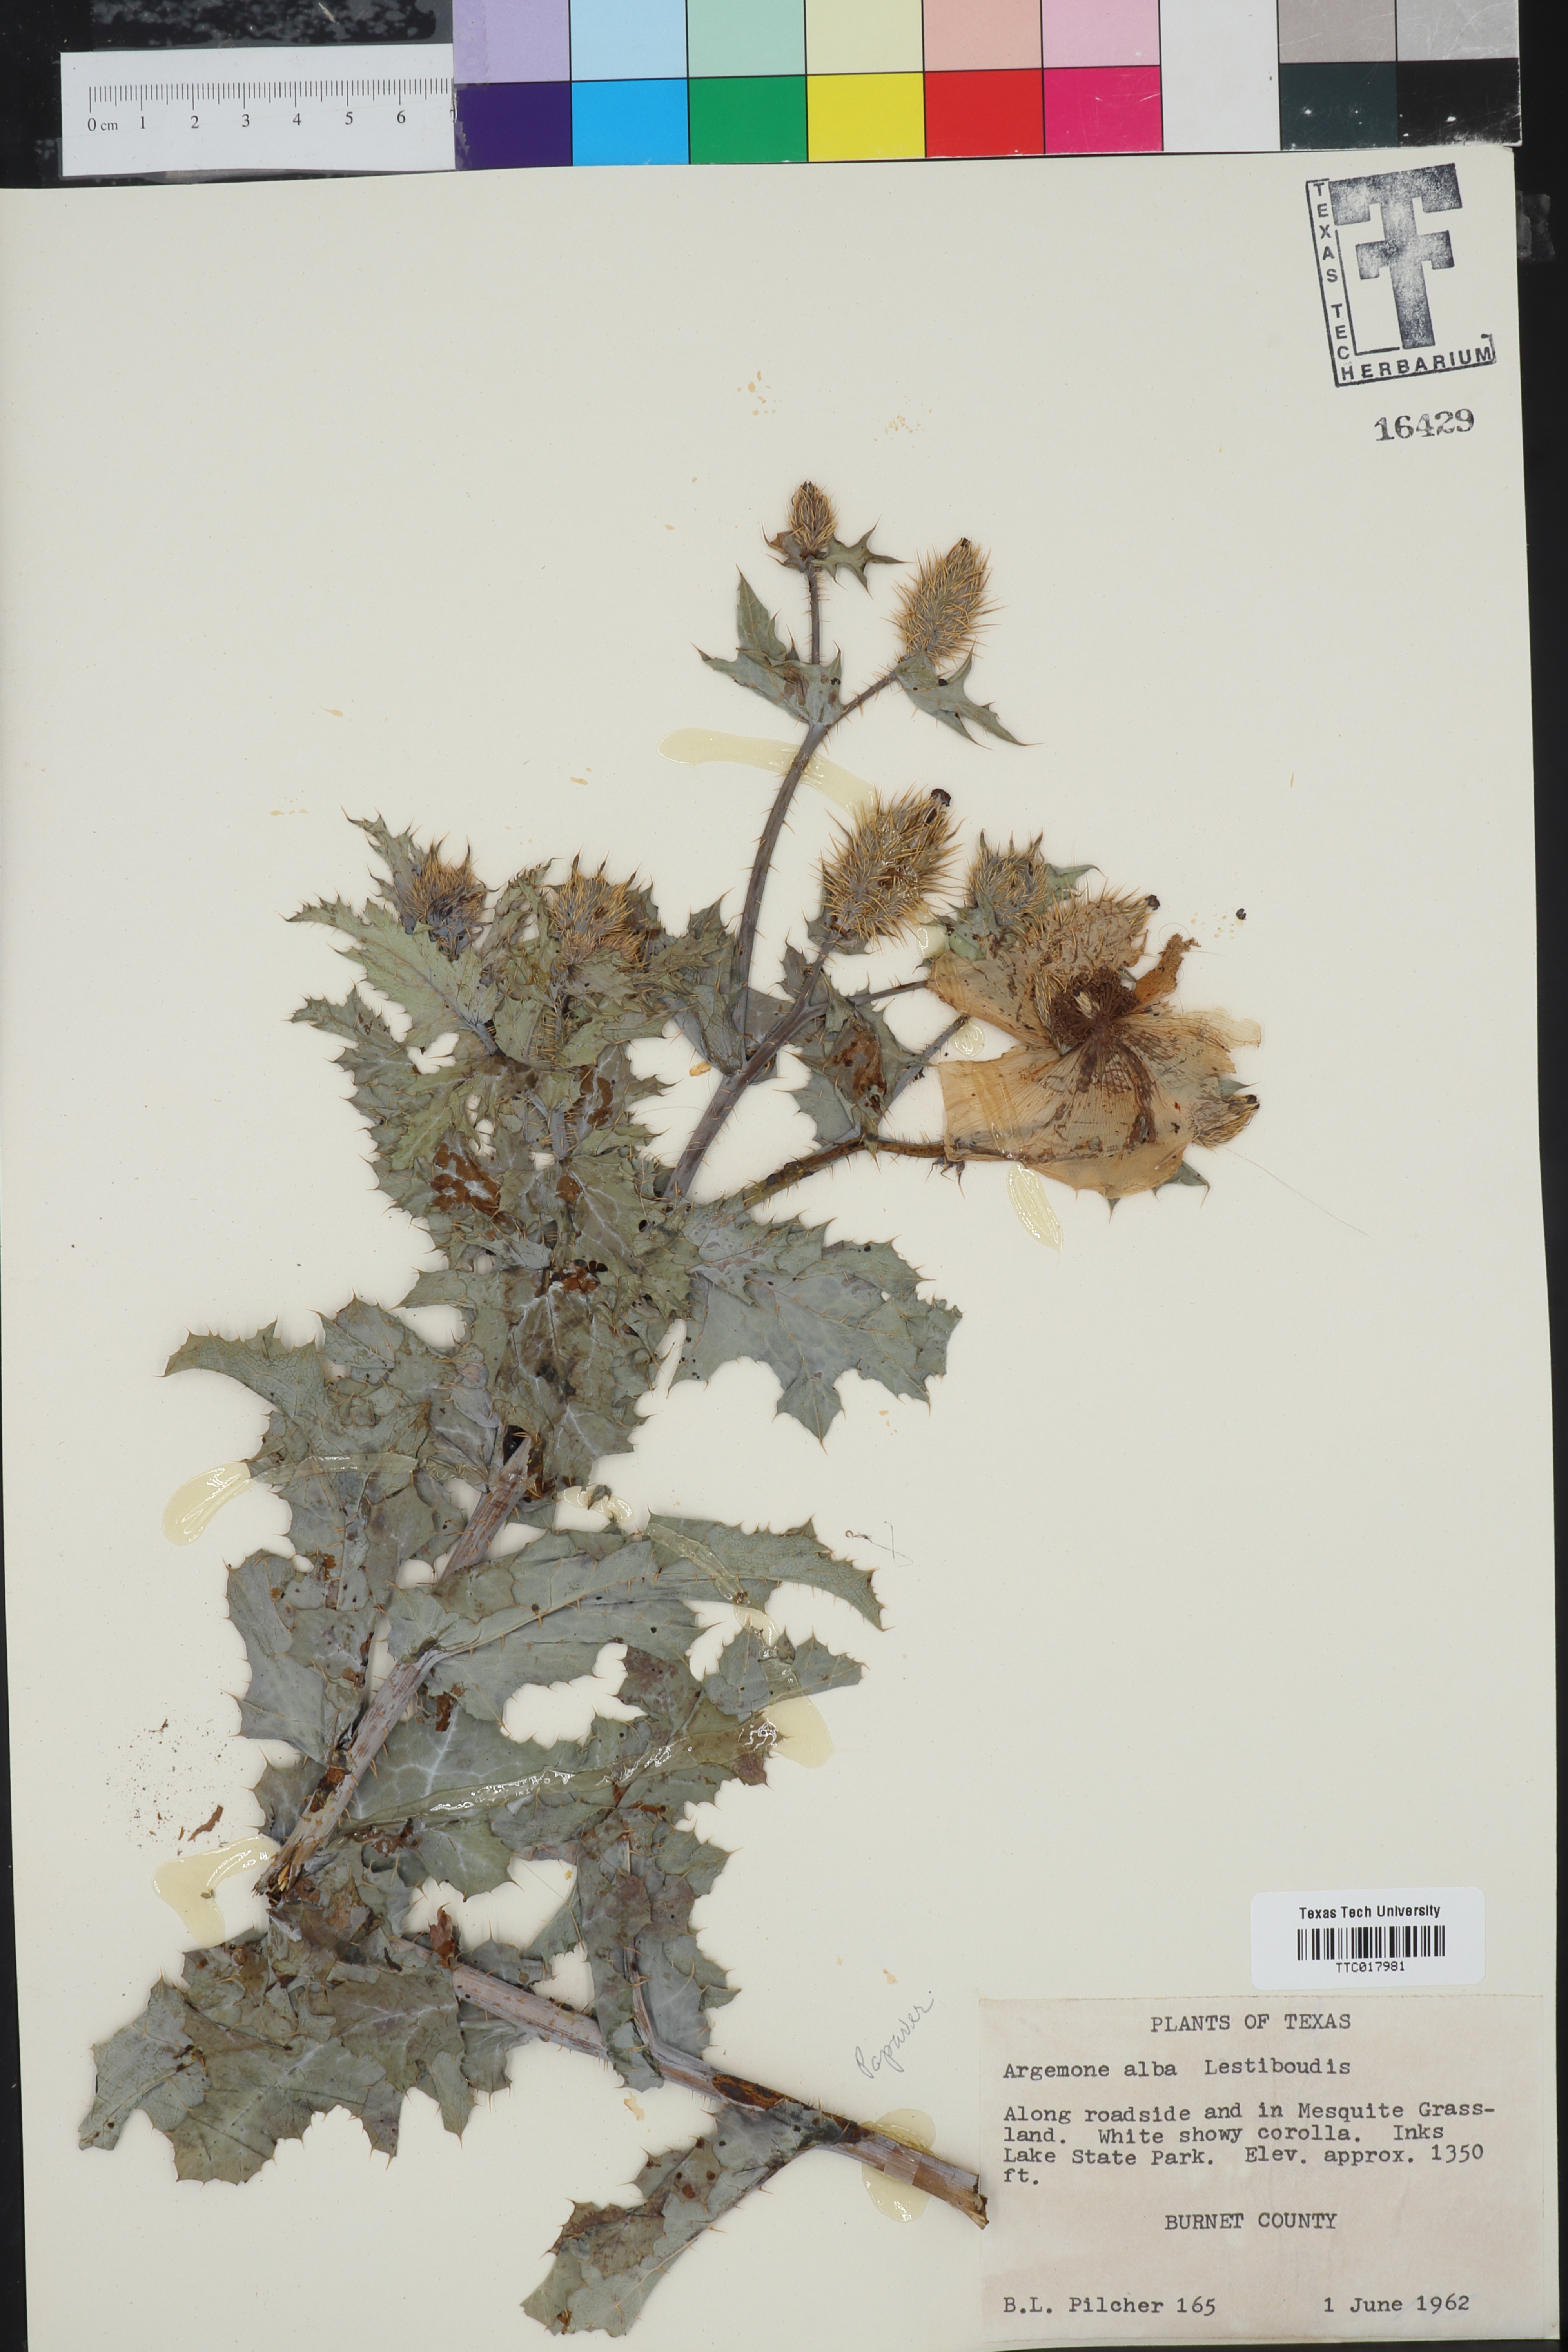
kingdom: Plantae
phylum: Tracheophyta
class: Magnoliopsida
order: Ranunculales
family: Papaveraceae
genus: Argemone
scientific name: Argemone albiflora
